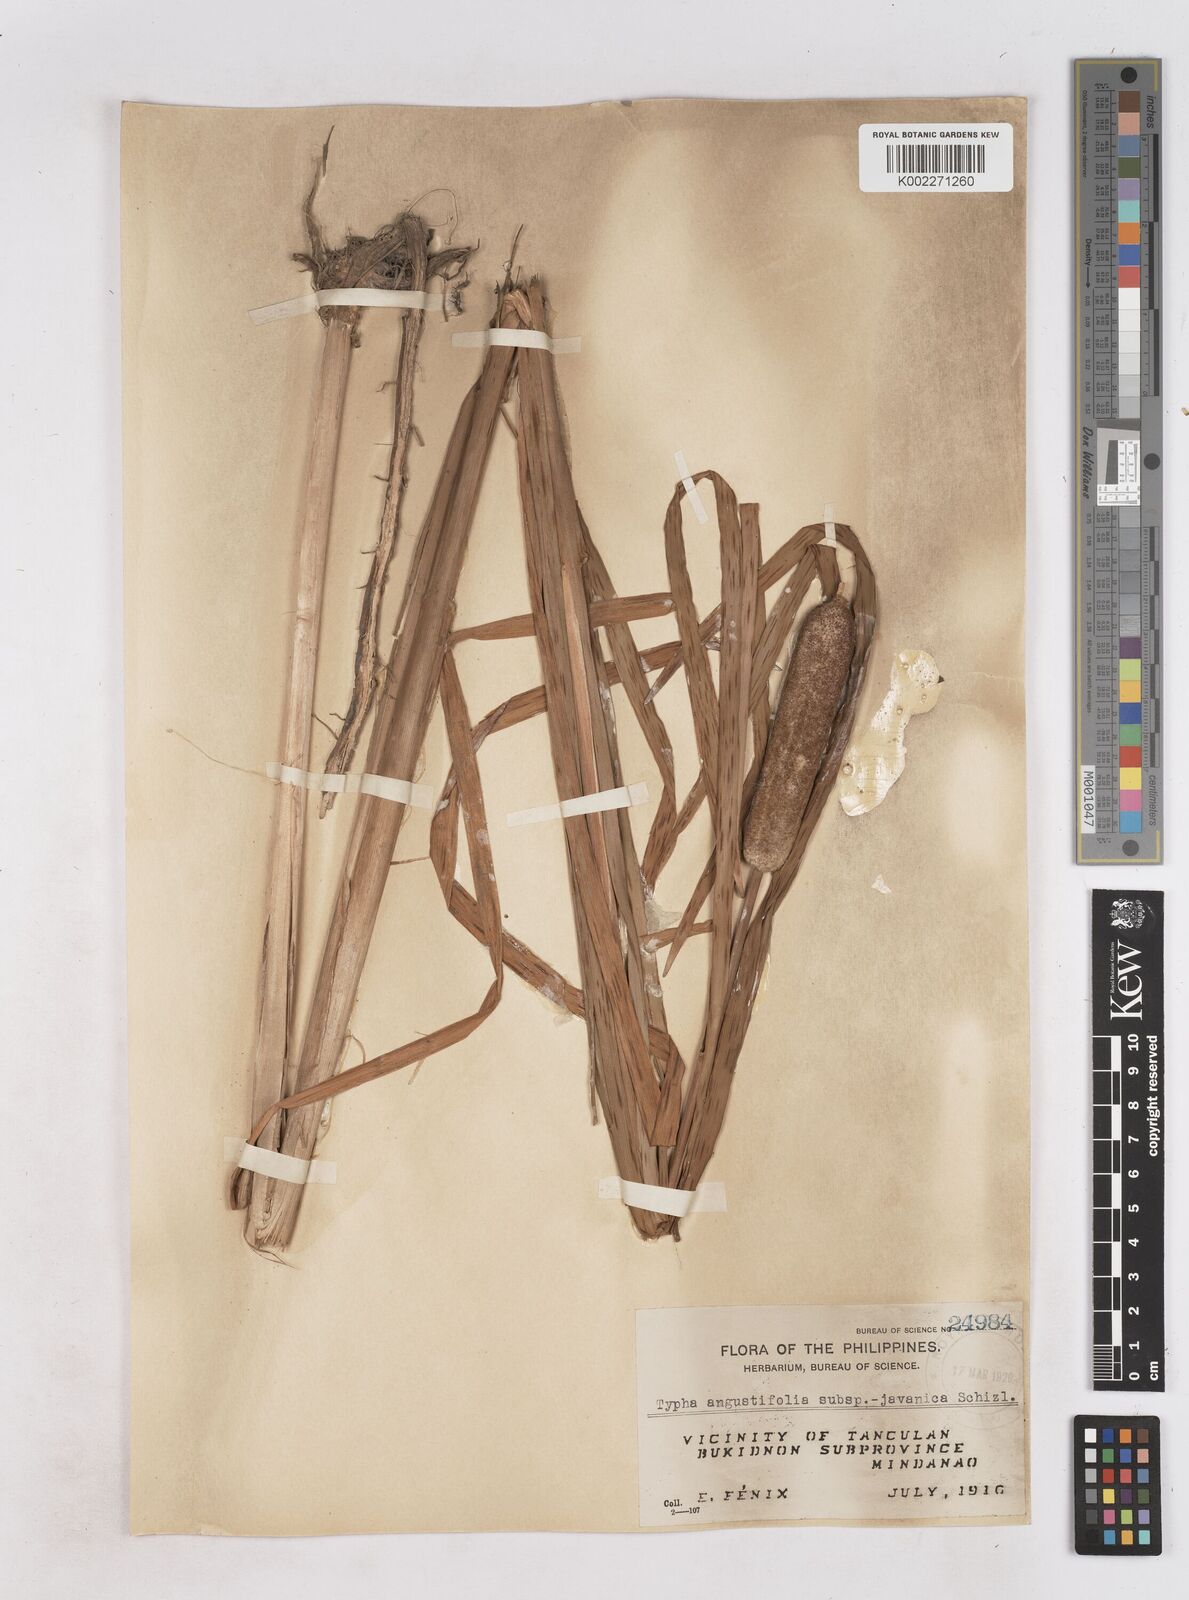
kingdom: Plantae
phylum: Tracheophyta
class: Liliopsida
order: Poales
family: Typhaceae
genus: Typha
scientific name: Typha orientalis
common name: Bullrush
